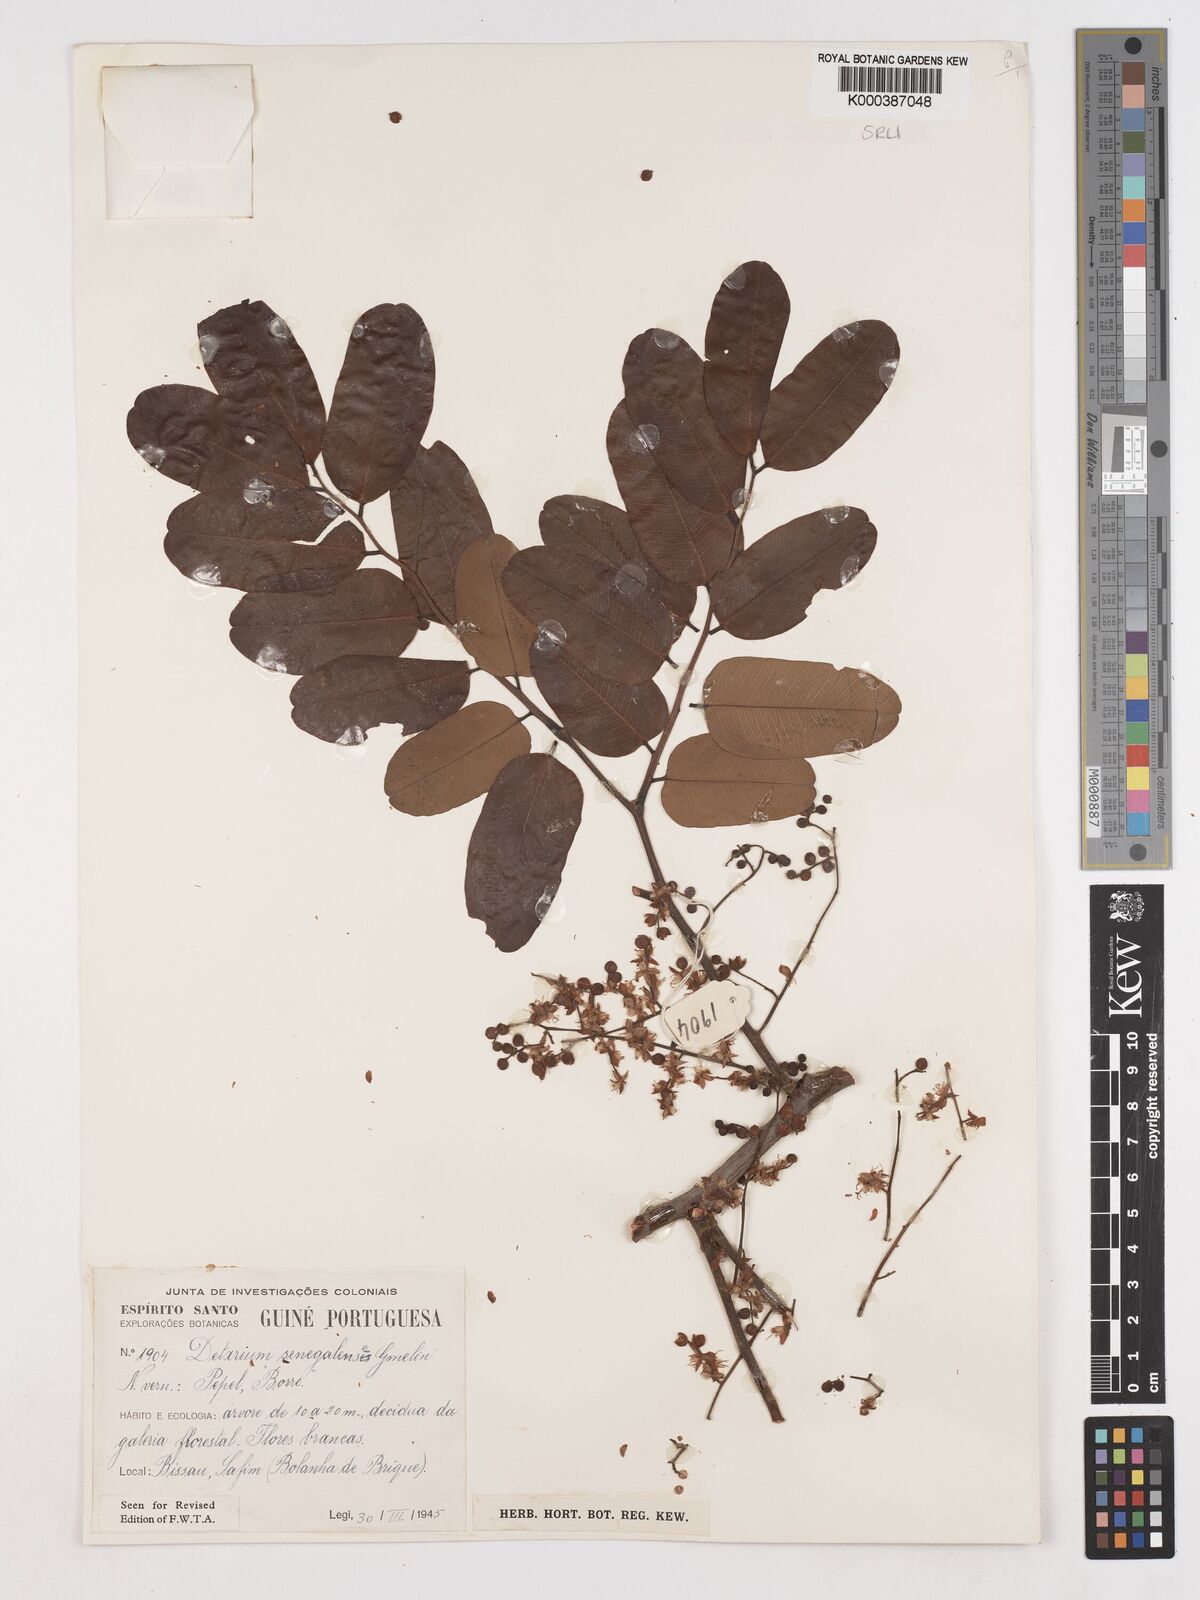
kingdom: Plantae
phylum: Tracheophyta
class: Magnoliopsida
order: Fabales
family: Fabaceae
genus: Detarium
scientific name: Detarium microcarpum
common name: Sweet dattock
